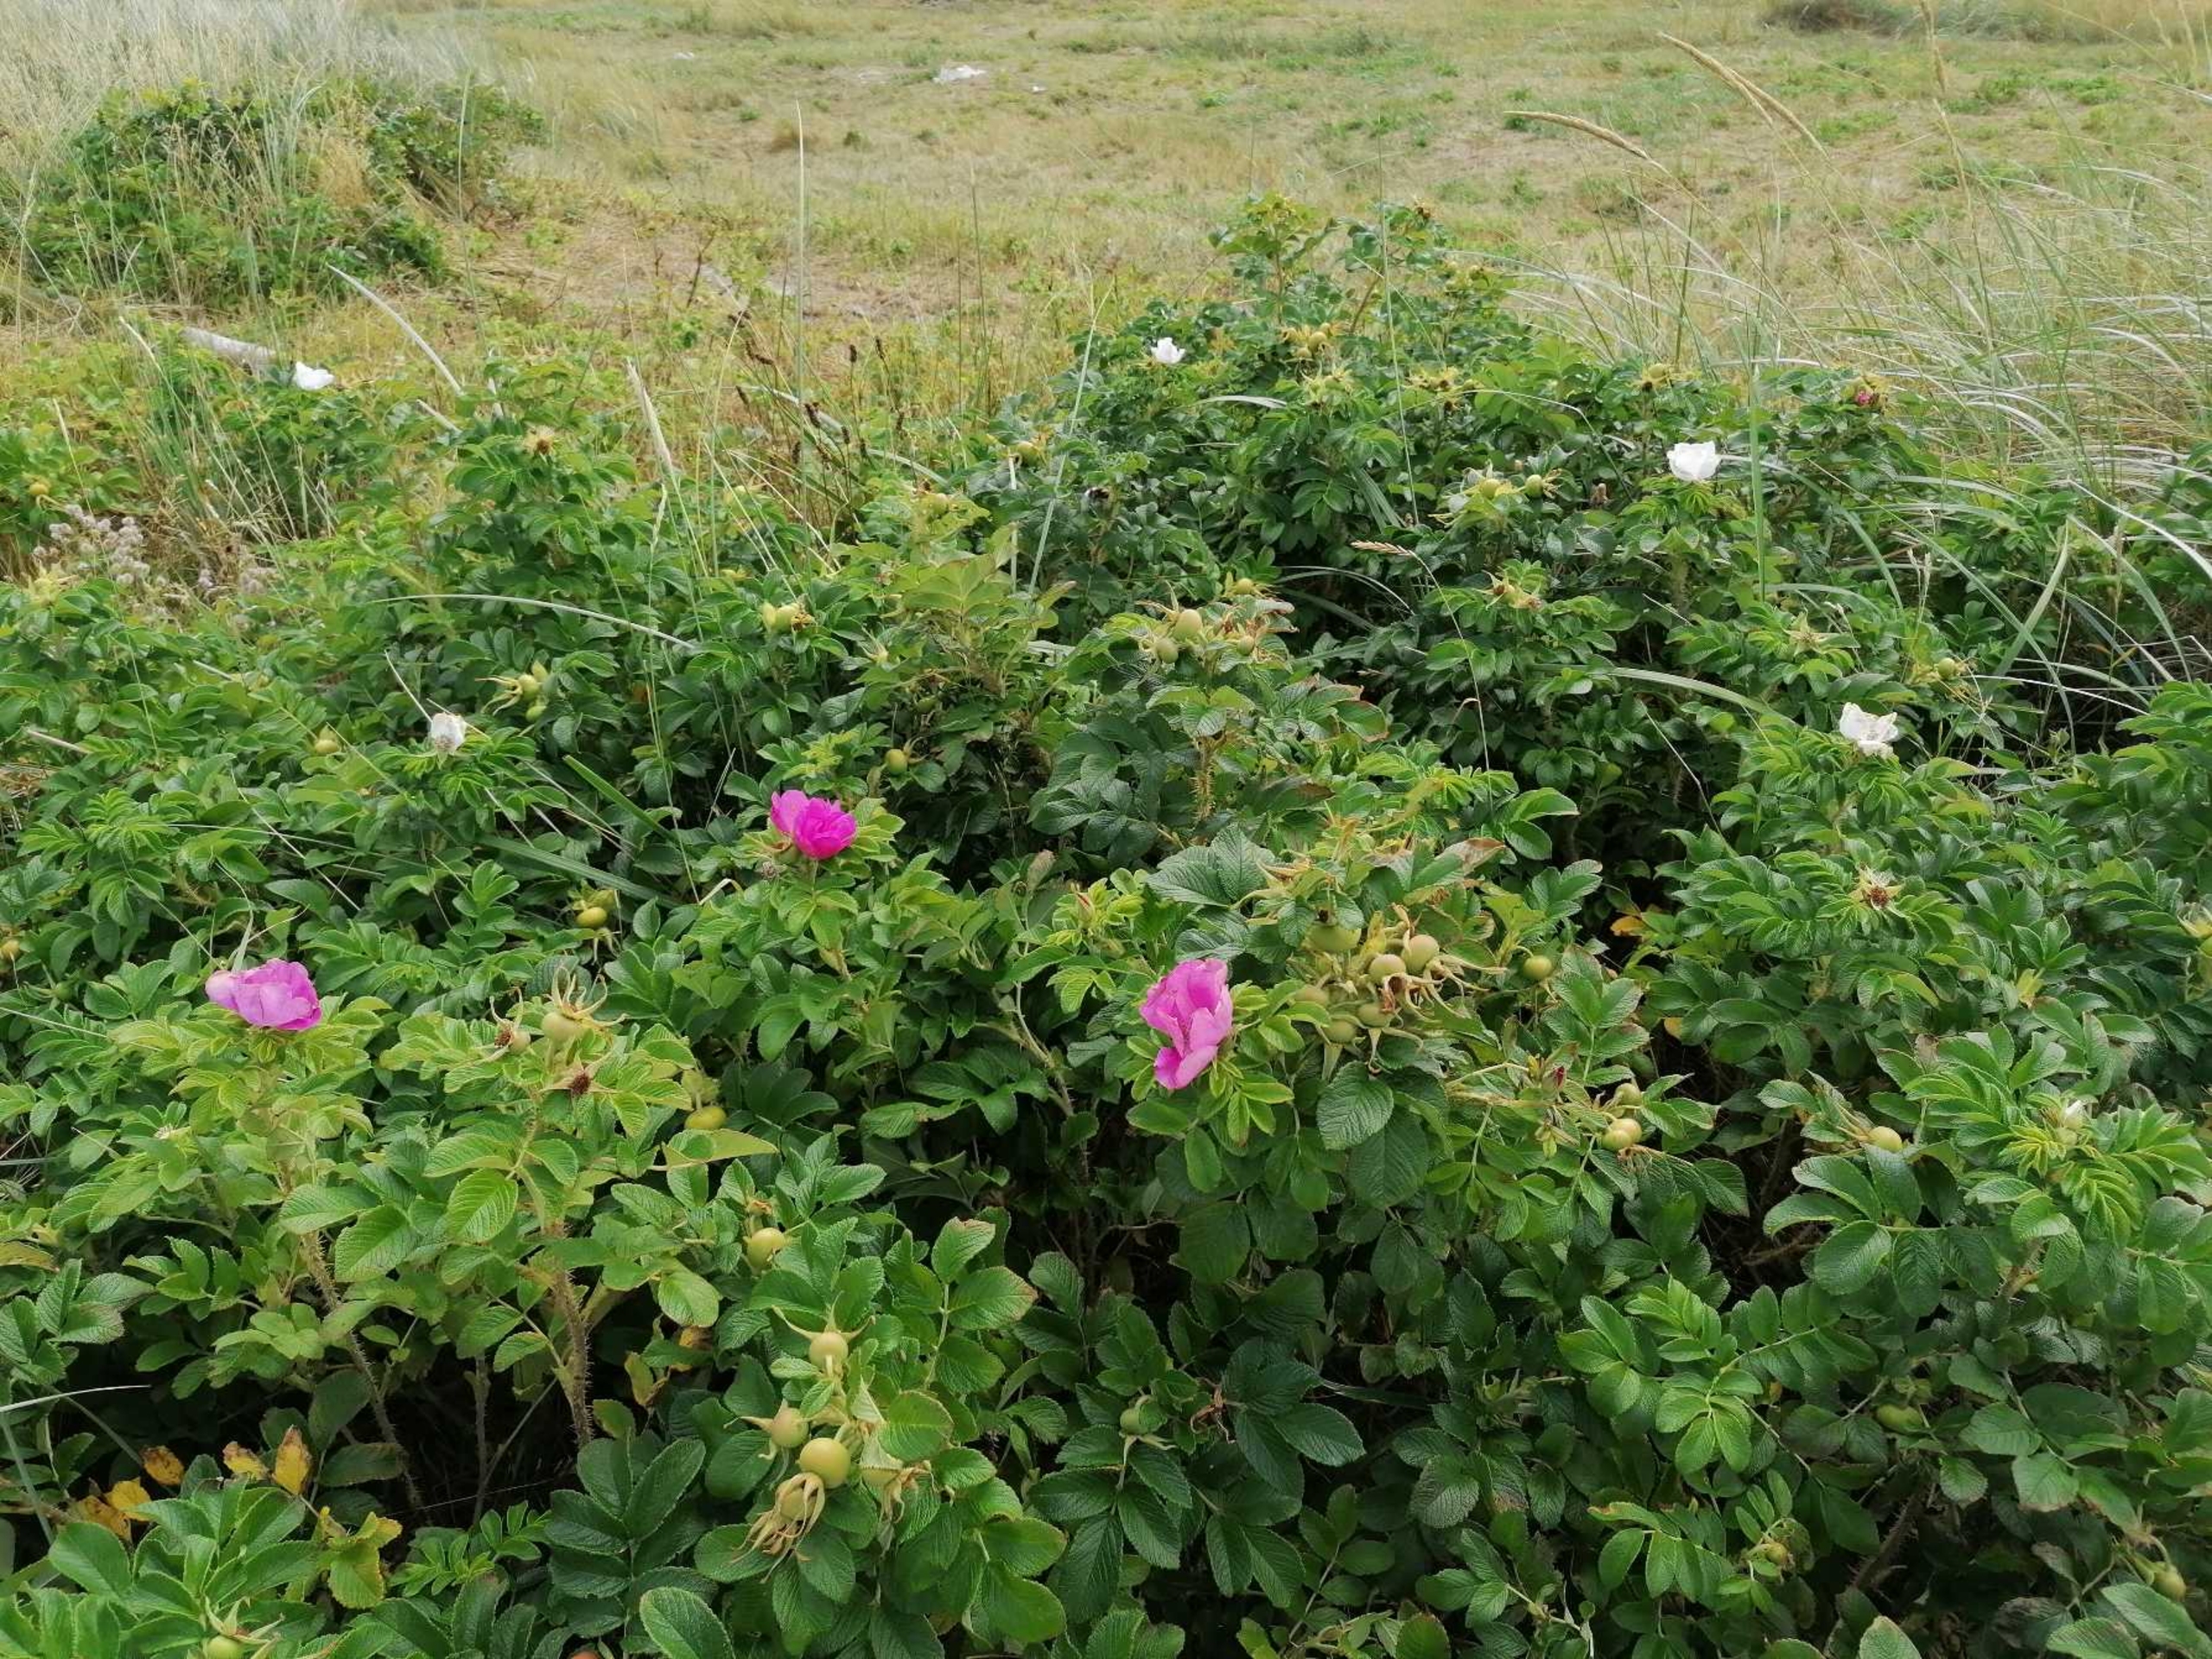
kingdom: Plantae
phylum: Tracheophyta
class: Magnoliopsida
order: Rosales
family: Rosaceae
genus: Rosa
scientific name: Rosa rugosa
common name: Rynket rose
